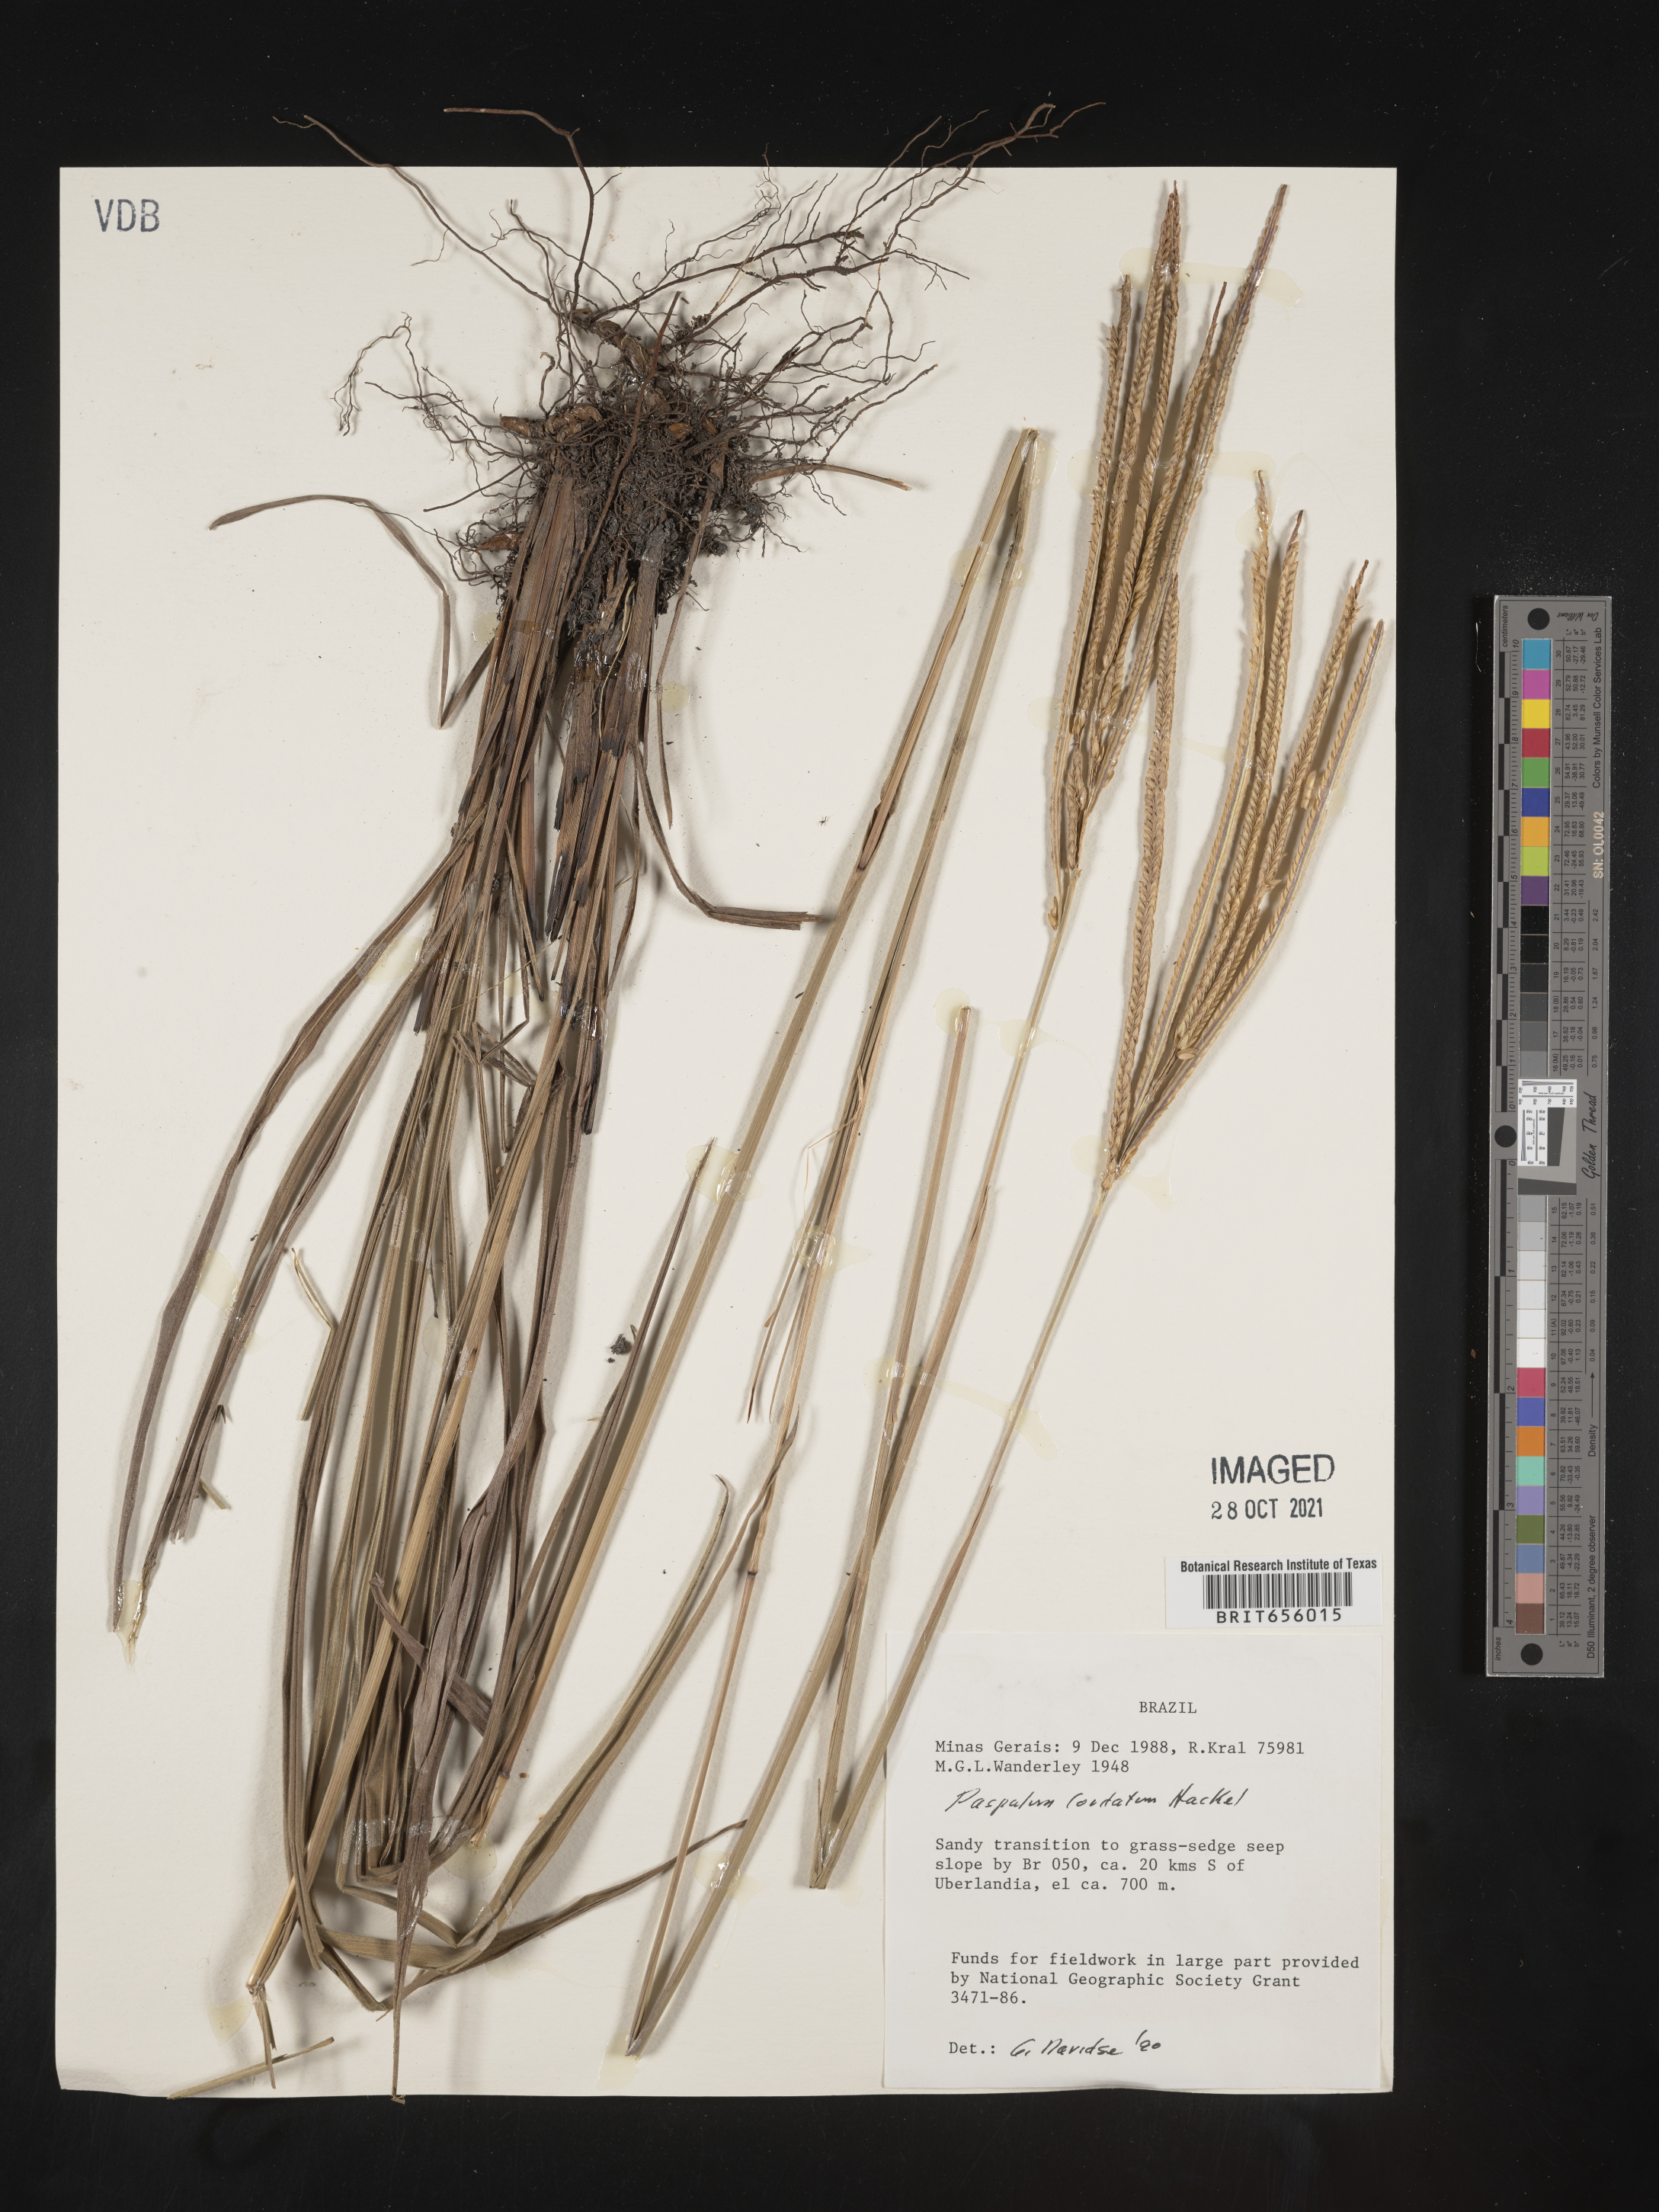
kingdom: Plantae
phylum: Tracheophyta
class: Liliopsida
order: Poales
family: Poaceae
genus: Paspalum
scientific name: Paspalum
